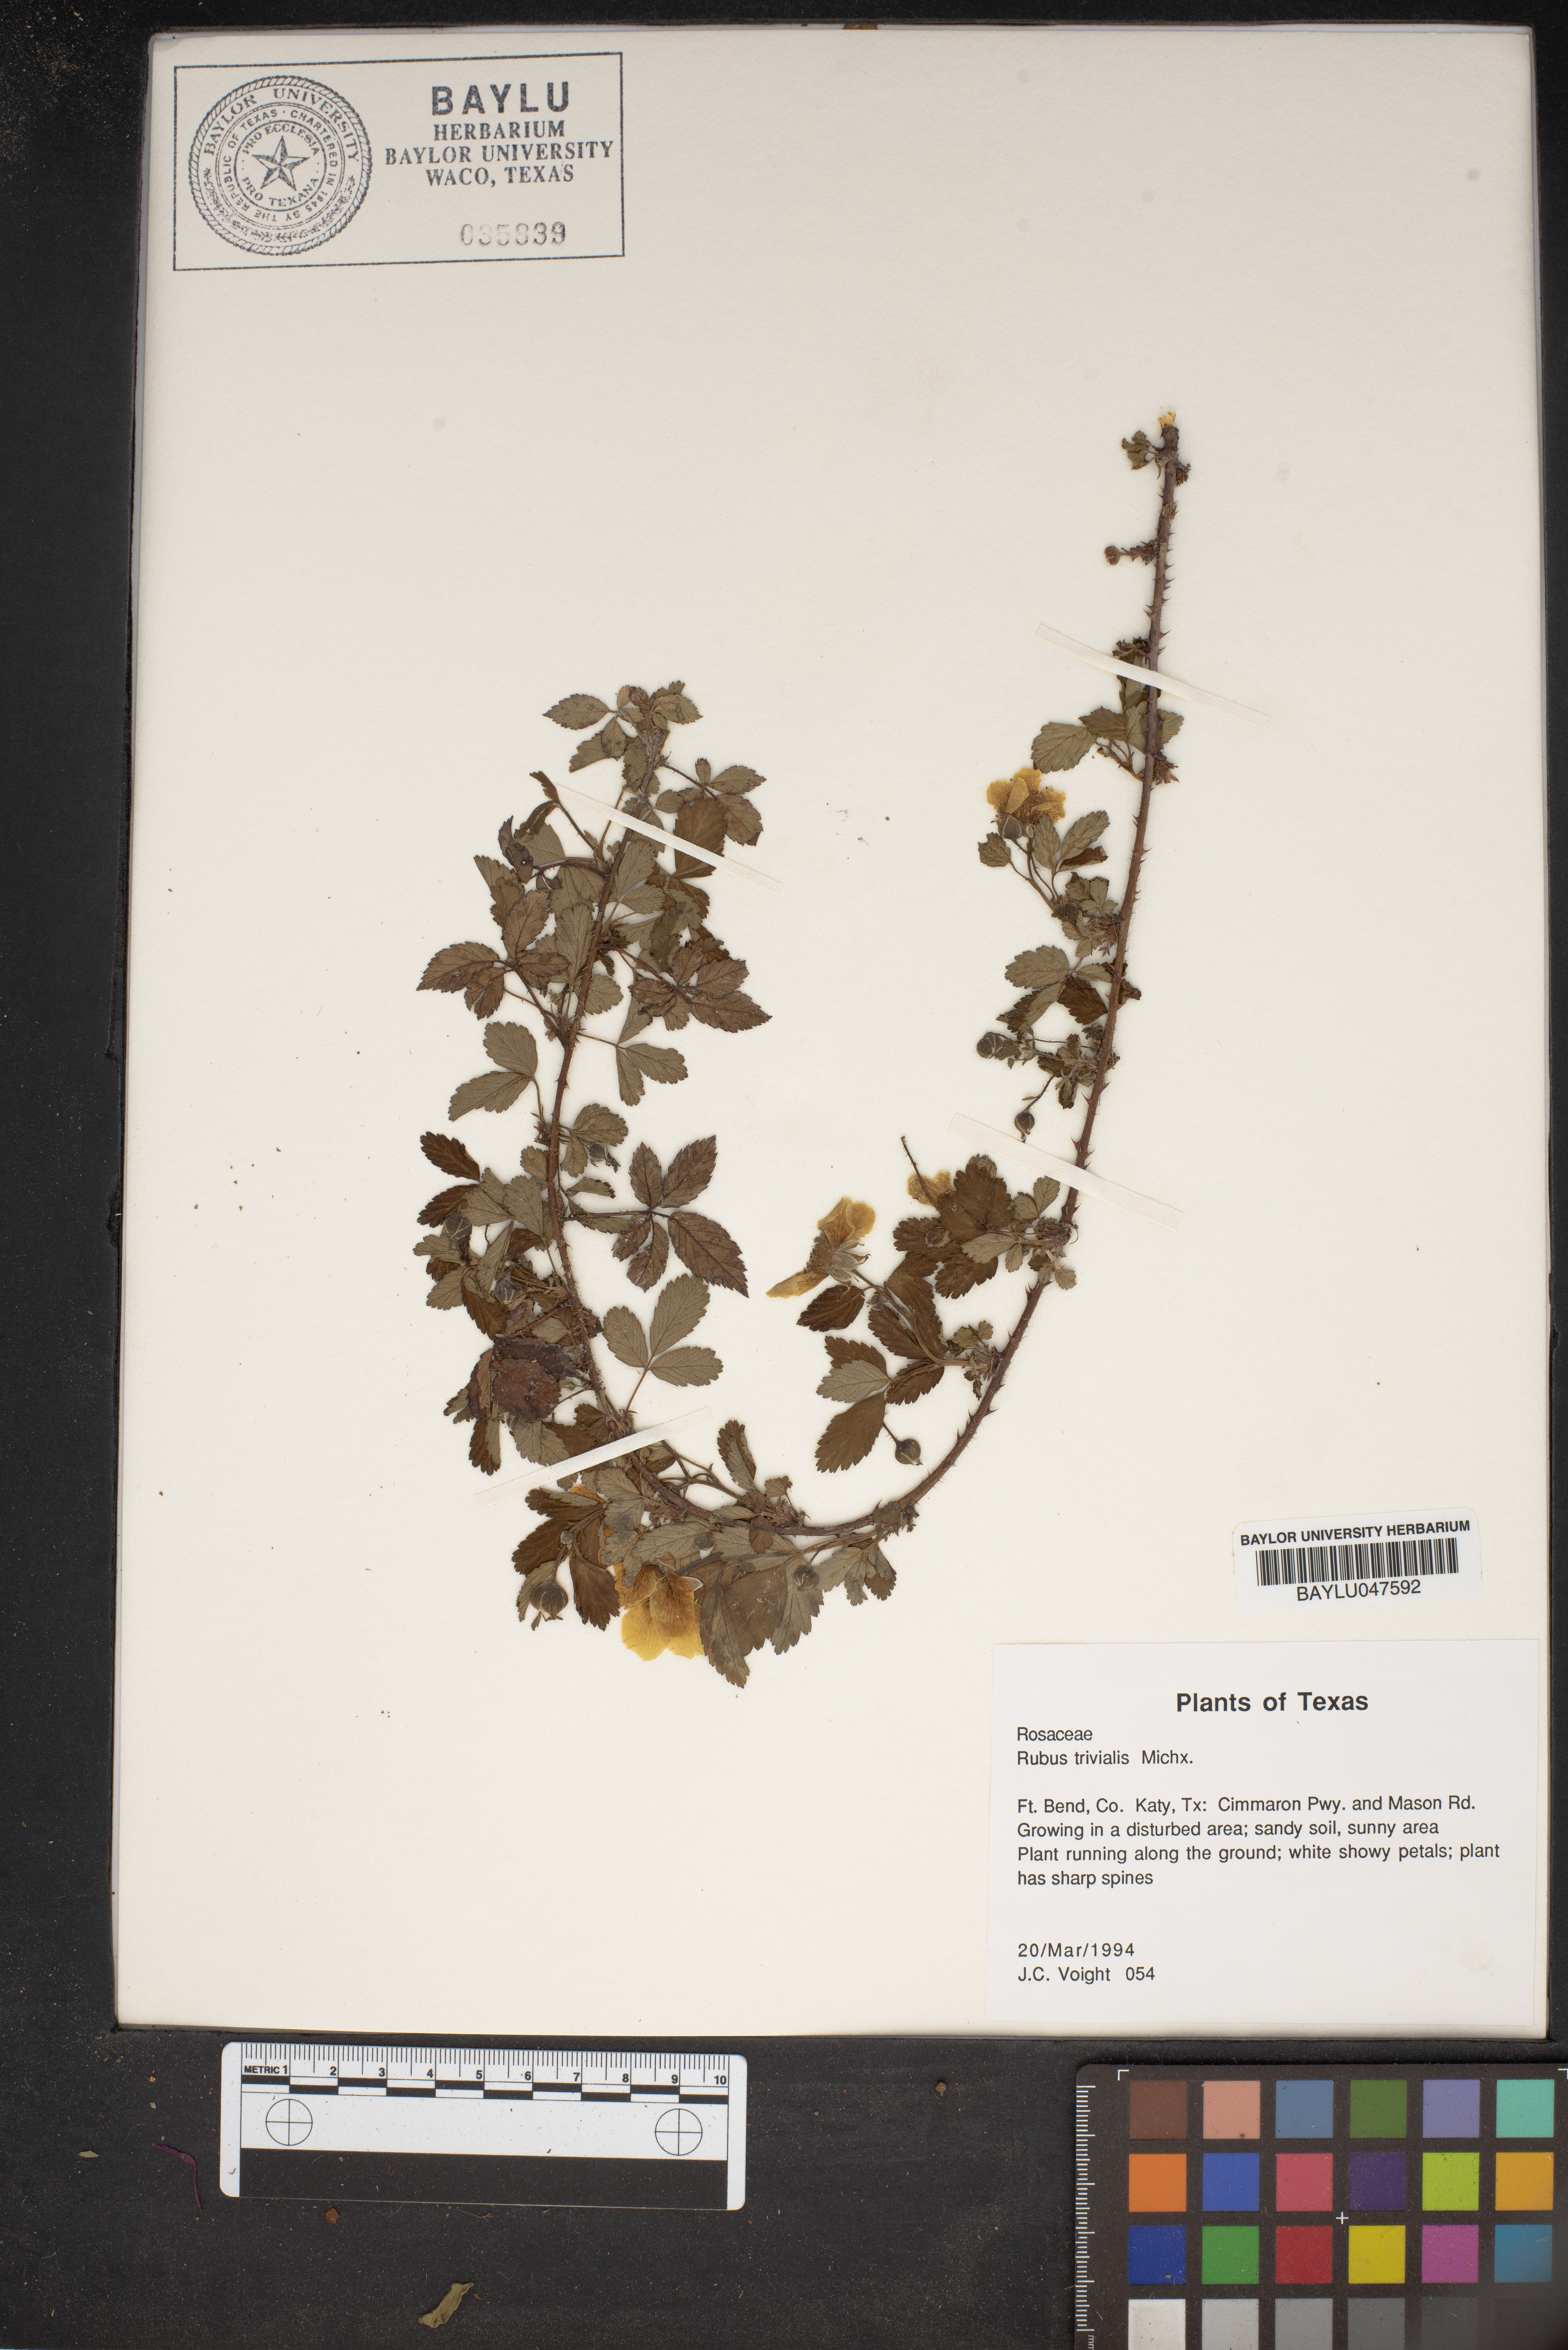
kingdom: Plantae
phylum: Tracheophyta
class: Magnoliopsida
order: Rosales
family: Rosaceae
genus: Rubus
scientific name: Rubus trivialis
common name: Southern dewberry
